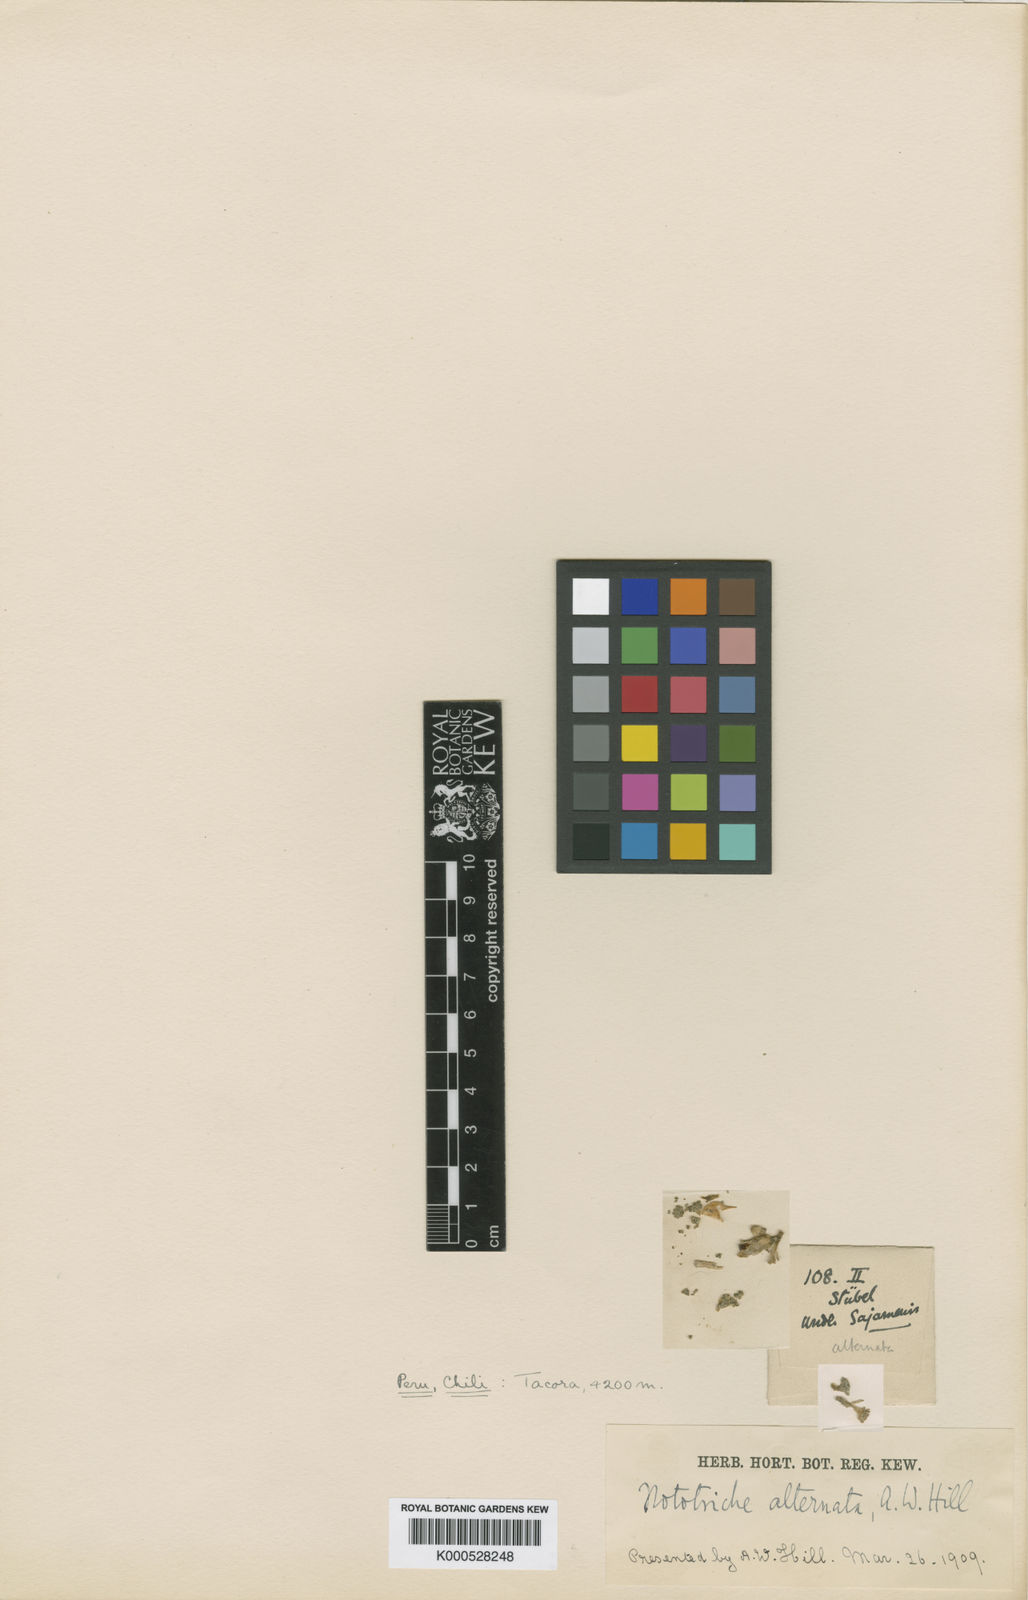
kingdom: Plantae
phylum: Tracheophyta
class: Magnoliopsida
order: Malvales
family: Malvaceae
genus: Nototriche
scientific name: Nototriche alternata
